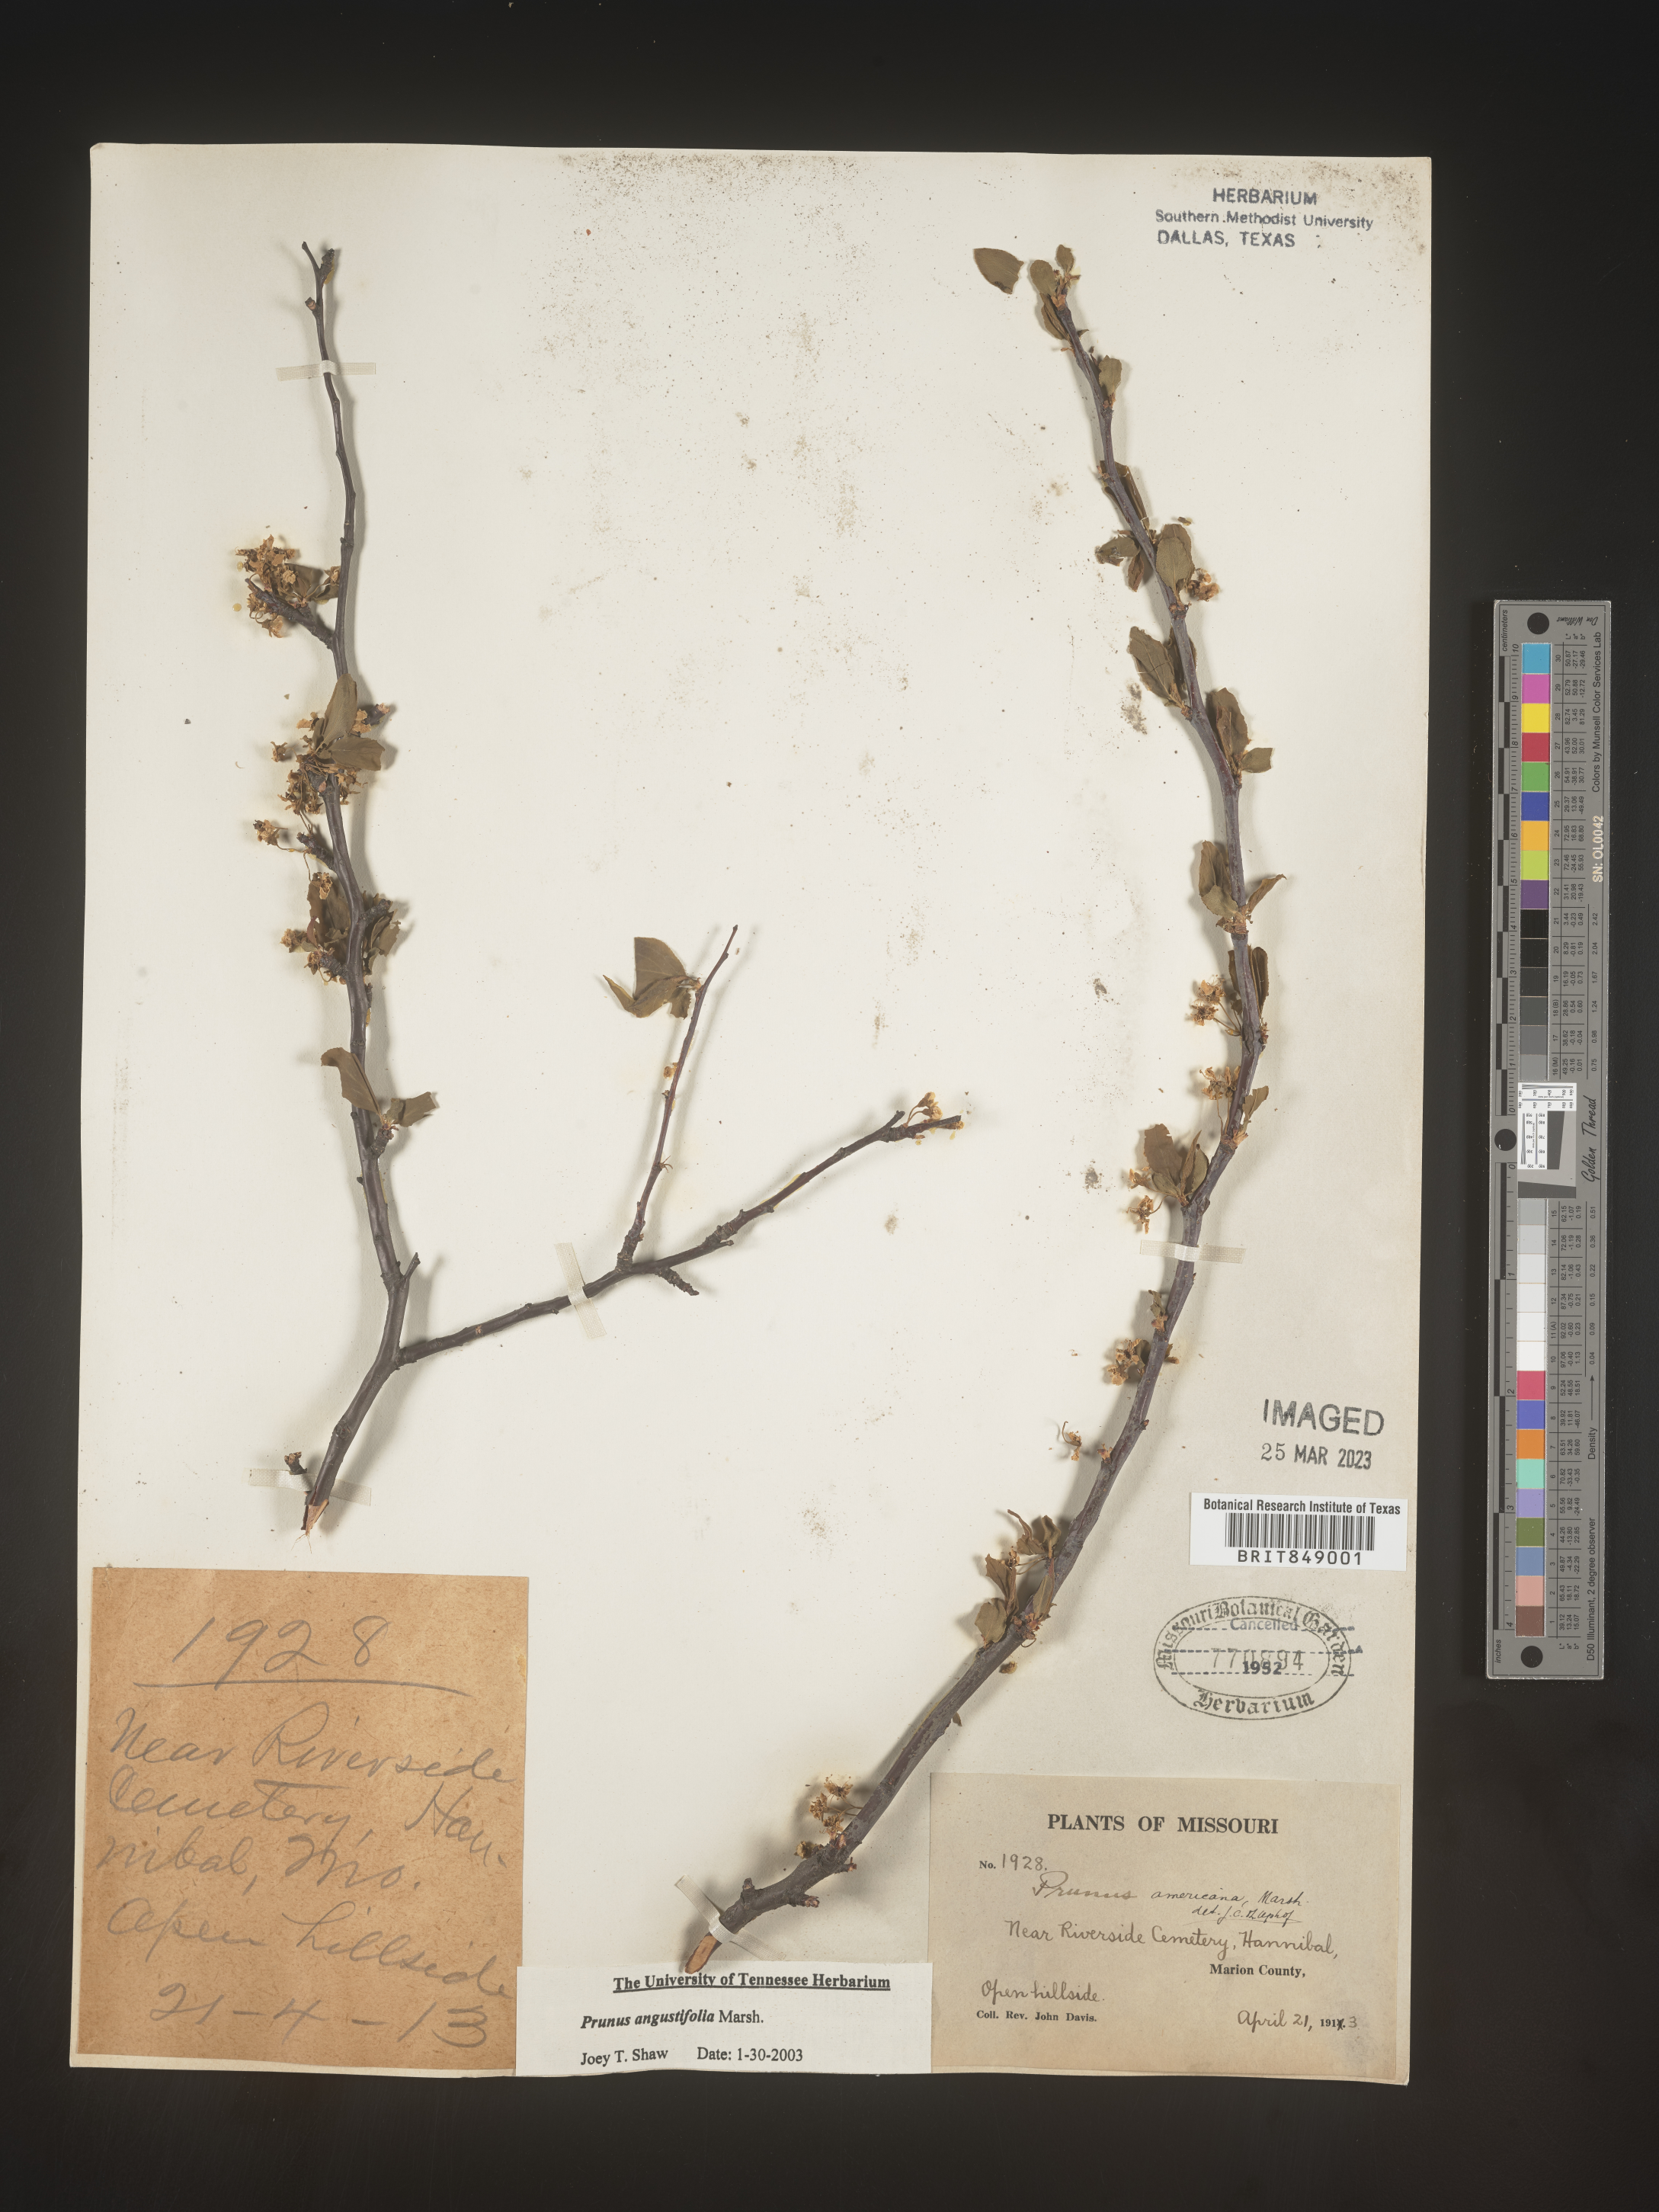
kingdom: Plantae
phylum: Tracheophyta
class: Magnoliopsida
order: Rosales
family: Rosaceae
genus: Prunus
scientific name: Prunus angustifolia
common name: Cherokee plum
